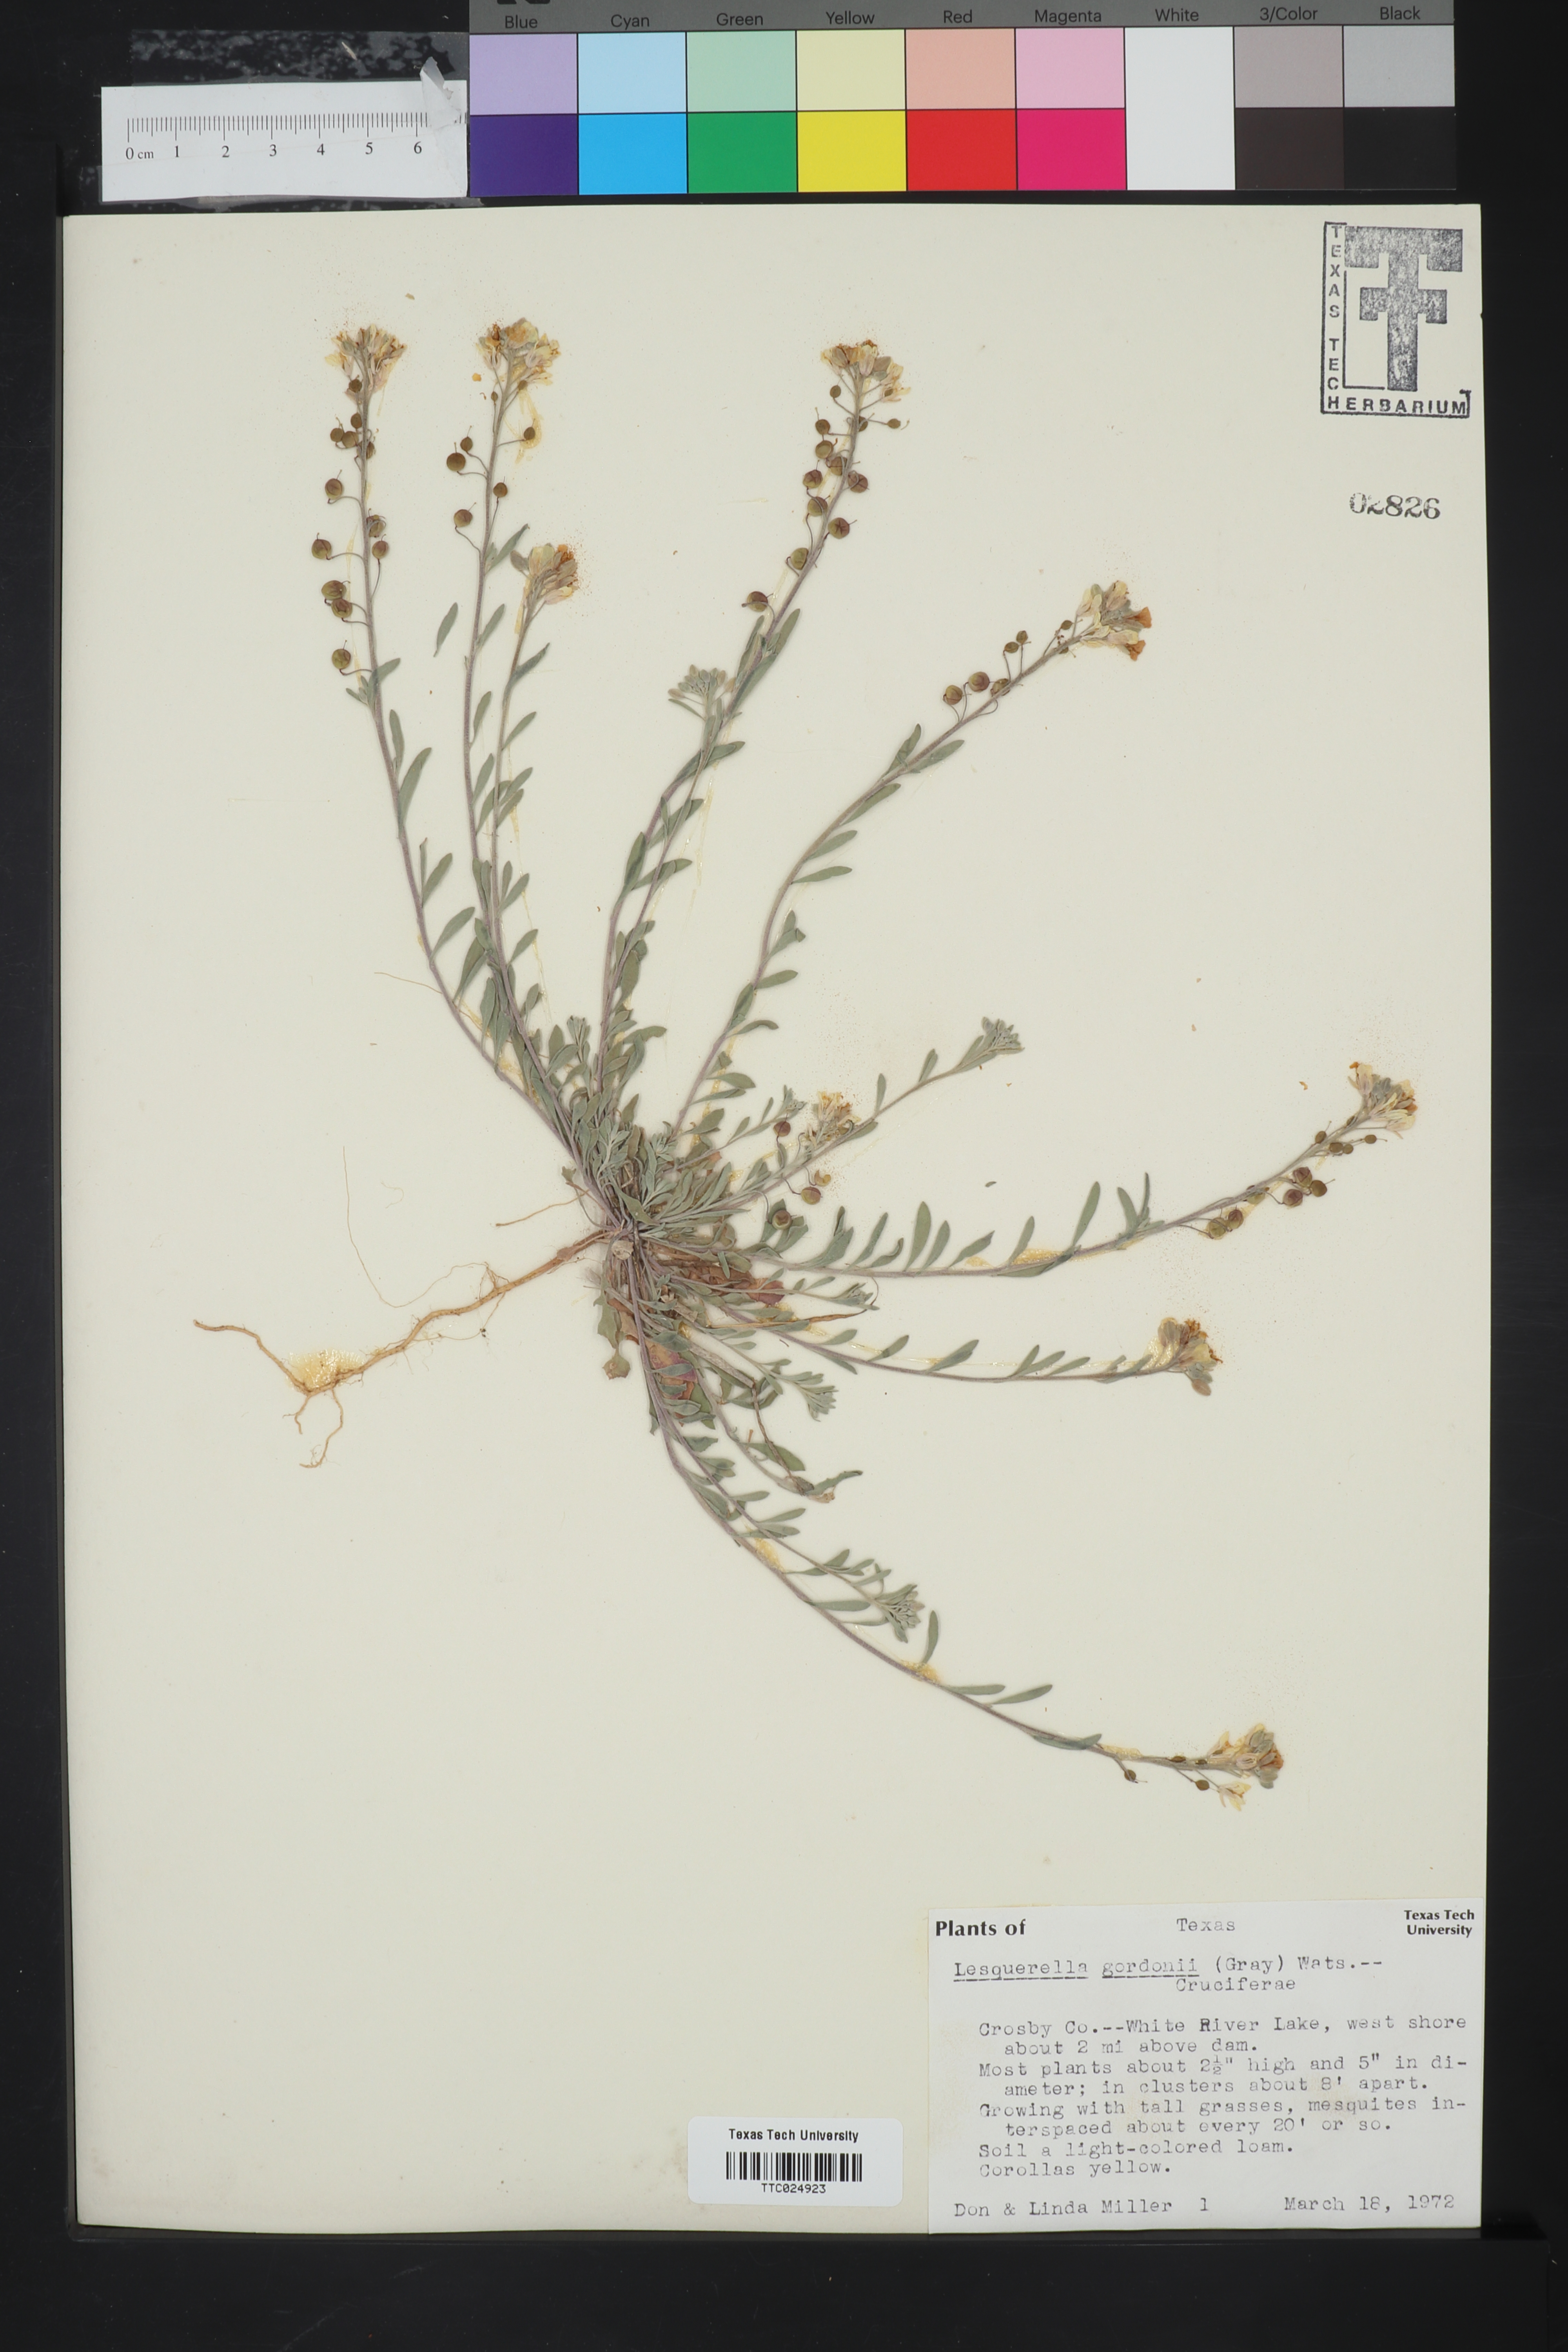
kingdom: Plantae
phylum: Tracheophyta
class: Magnoliopsida
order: Brassicales
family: Brassicaceae
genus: Physaria
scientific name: Physaria gordonii
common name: Gordon's bladderpod
